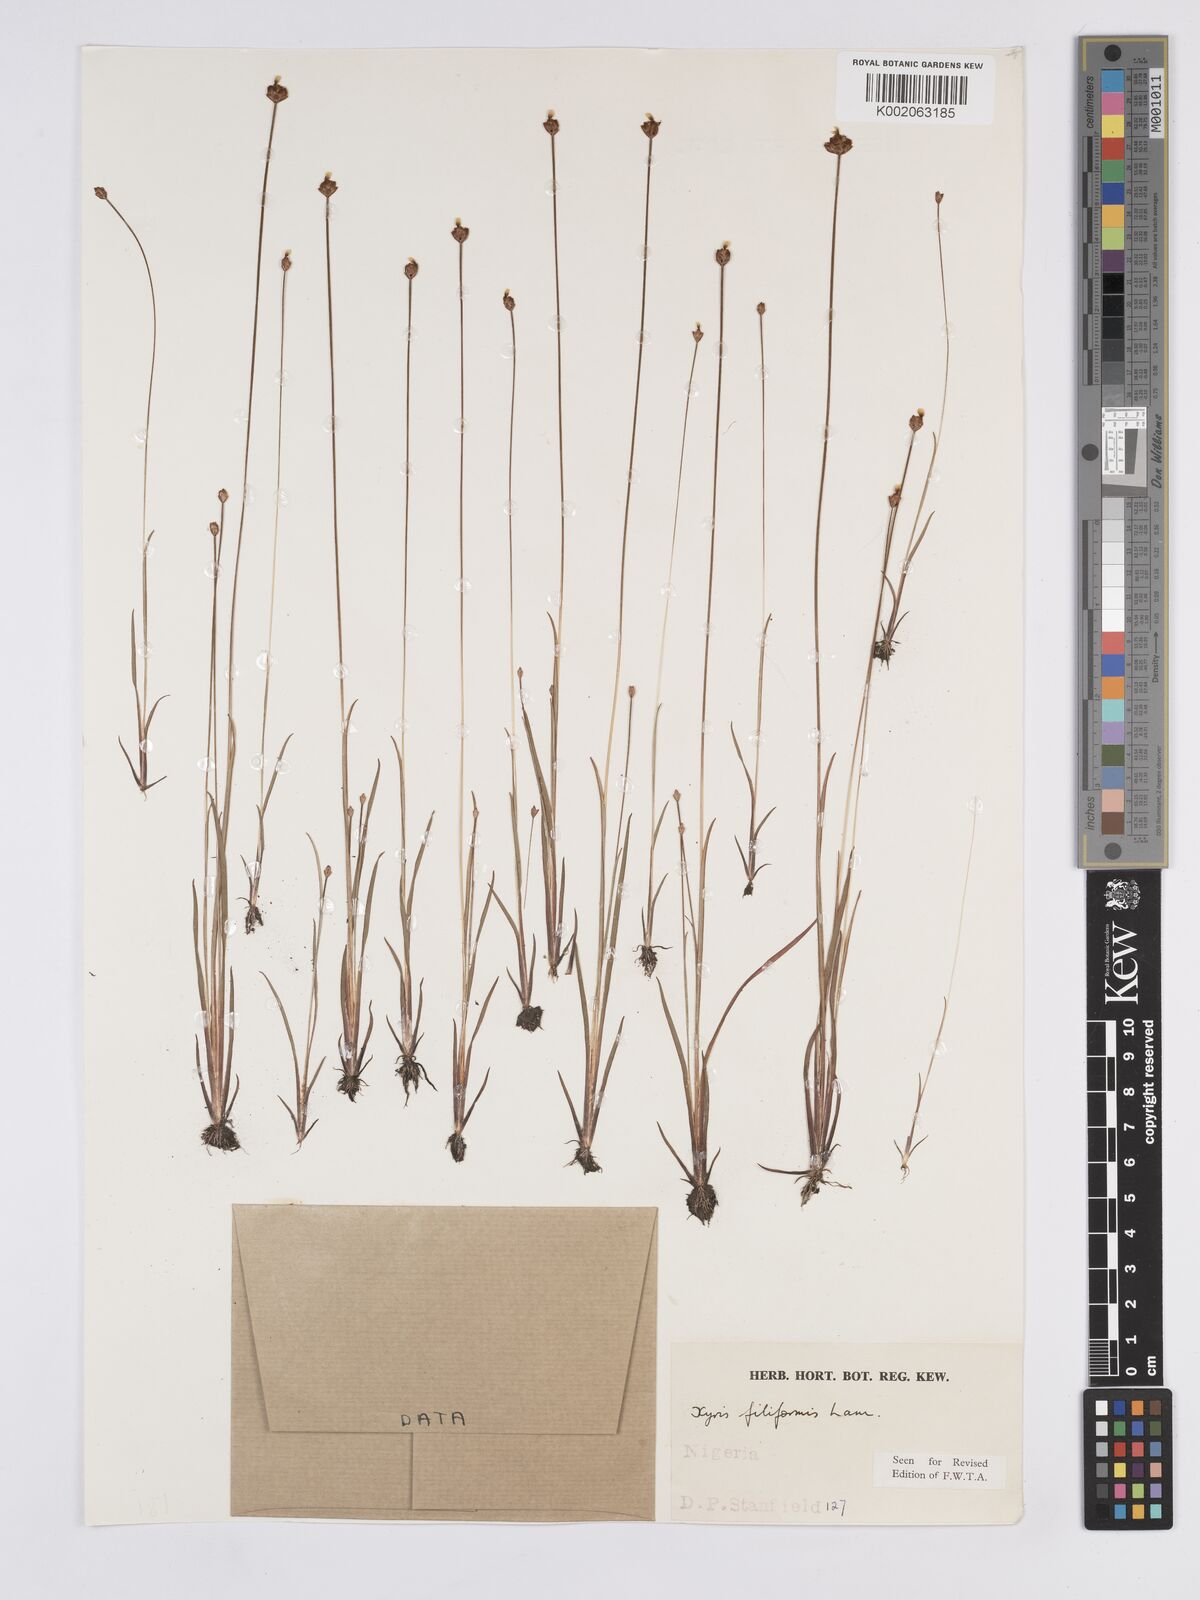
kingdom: Plantae
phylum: Tracheophyta
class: Liliopsida
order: Poales
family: Xyridaceae
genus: Xyris
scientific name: Xyris filiformis
